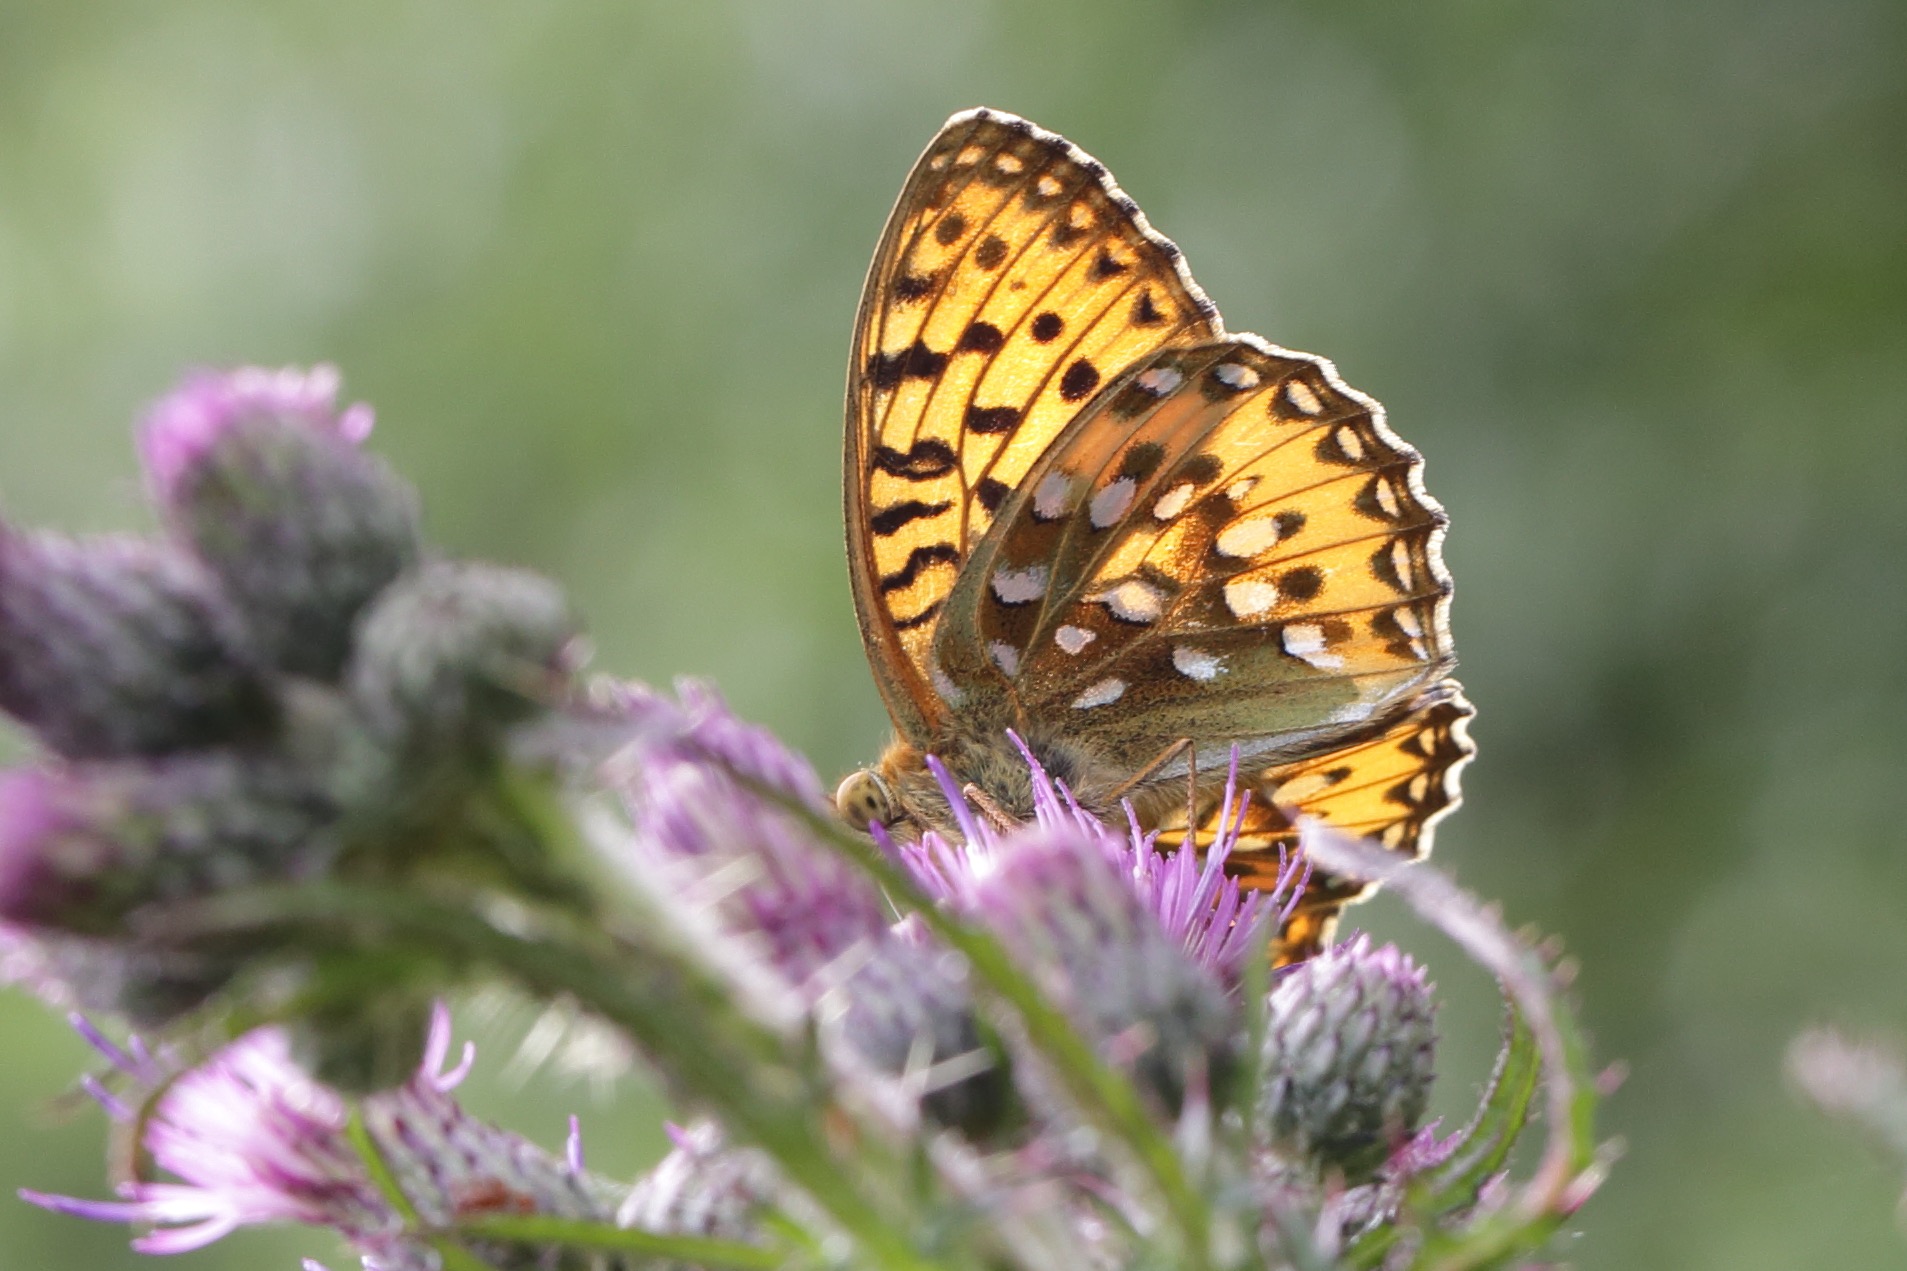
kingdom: Animalia
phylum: Arthropoda
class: Insecta
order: Lepidoptera
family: Nymphalidae
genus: Speyeria
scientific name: Speyeria aglaja
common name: Markperlemorsommerfugl
